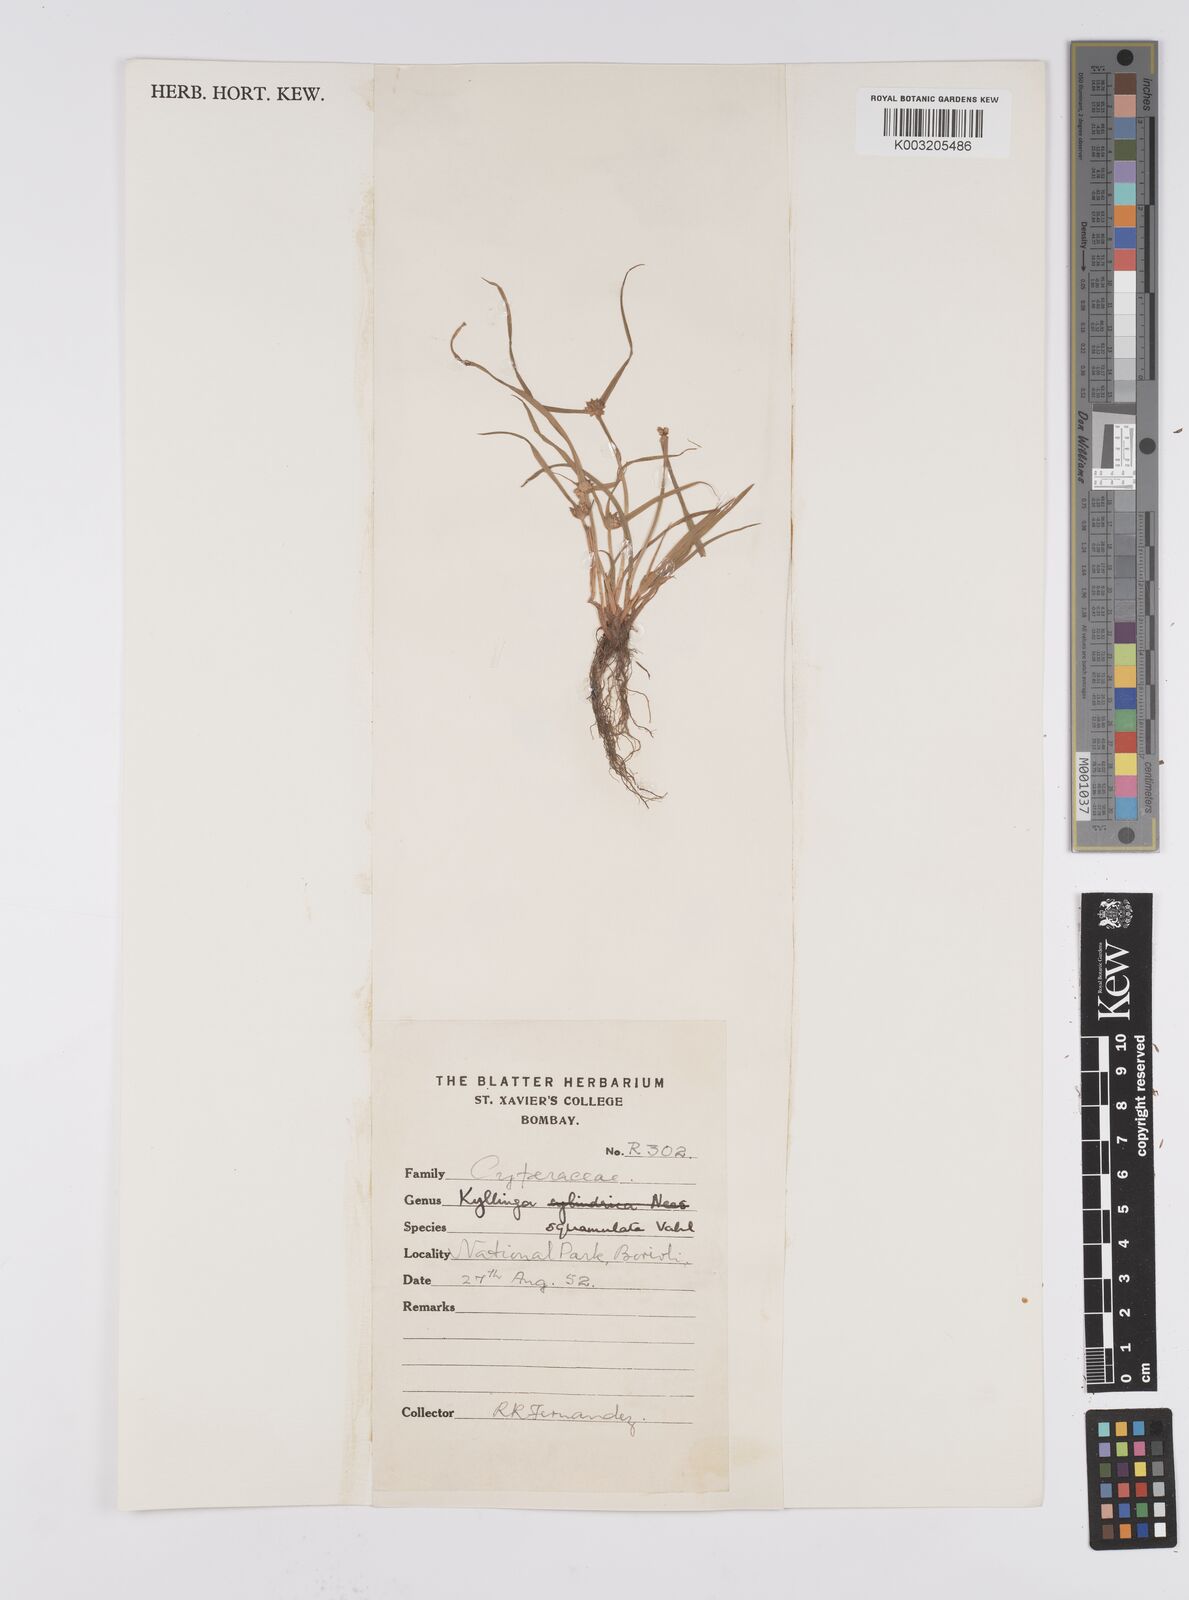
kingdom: Plantae
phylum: Tracheophyta
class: Liliopsida
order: Poales
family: Cyperaceae
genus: Cyperus
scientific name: Cyperus
